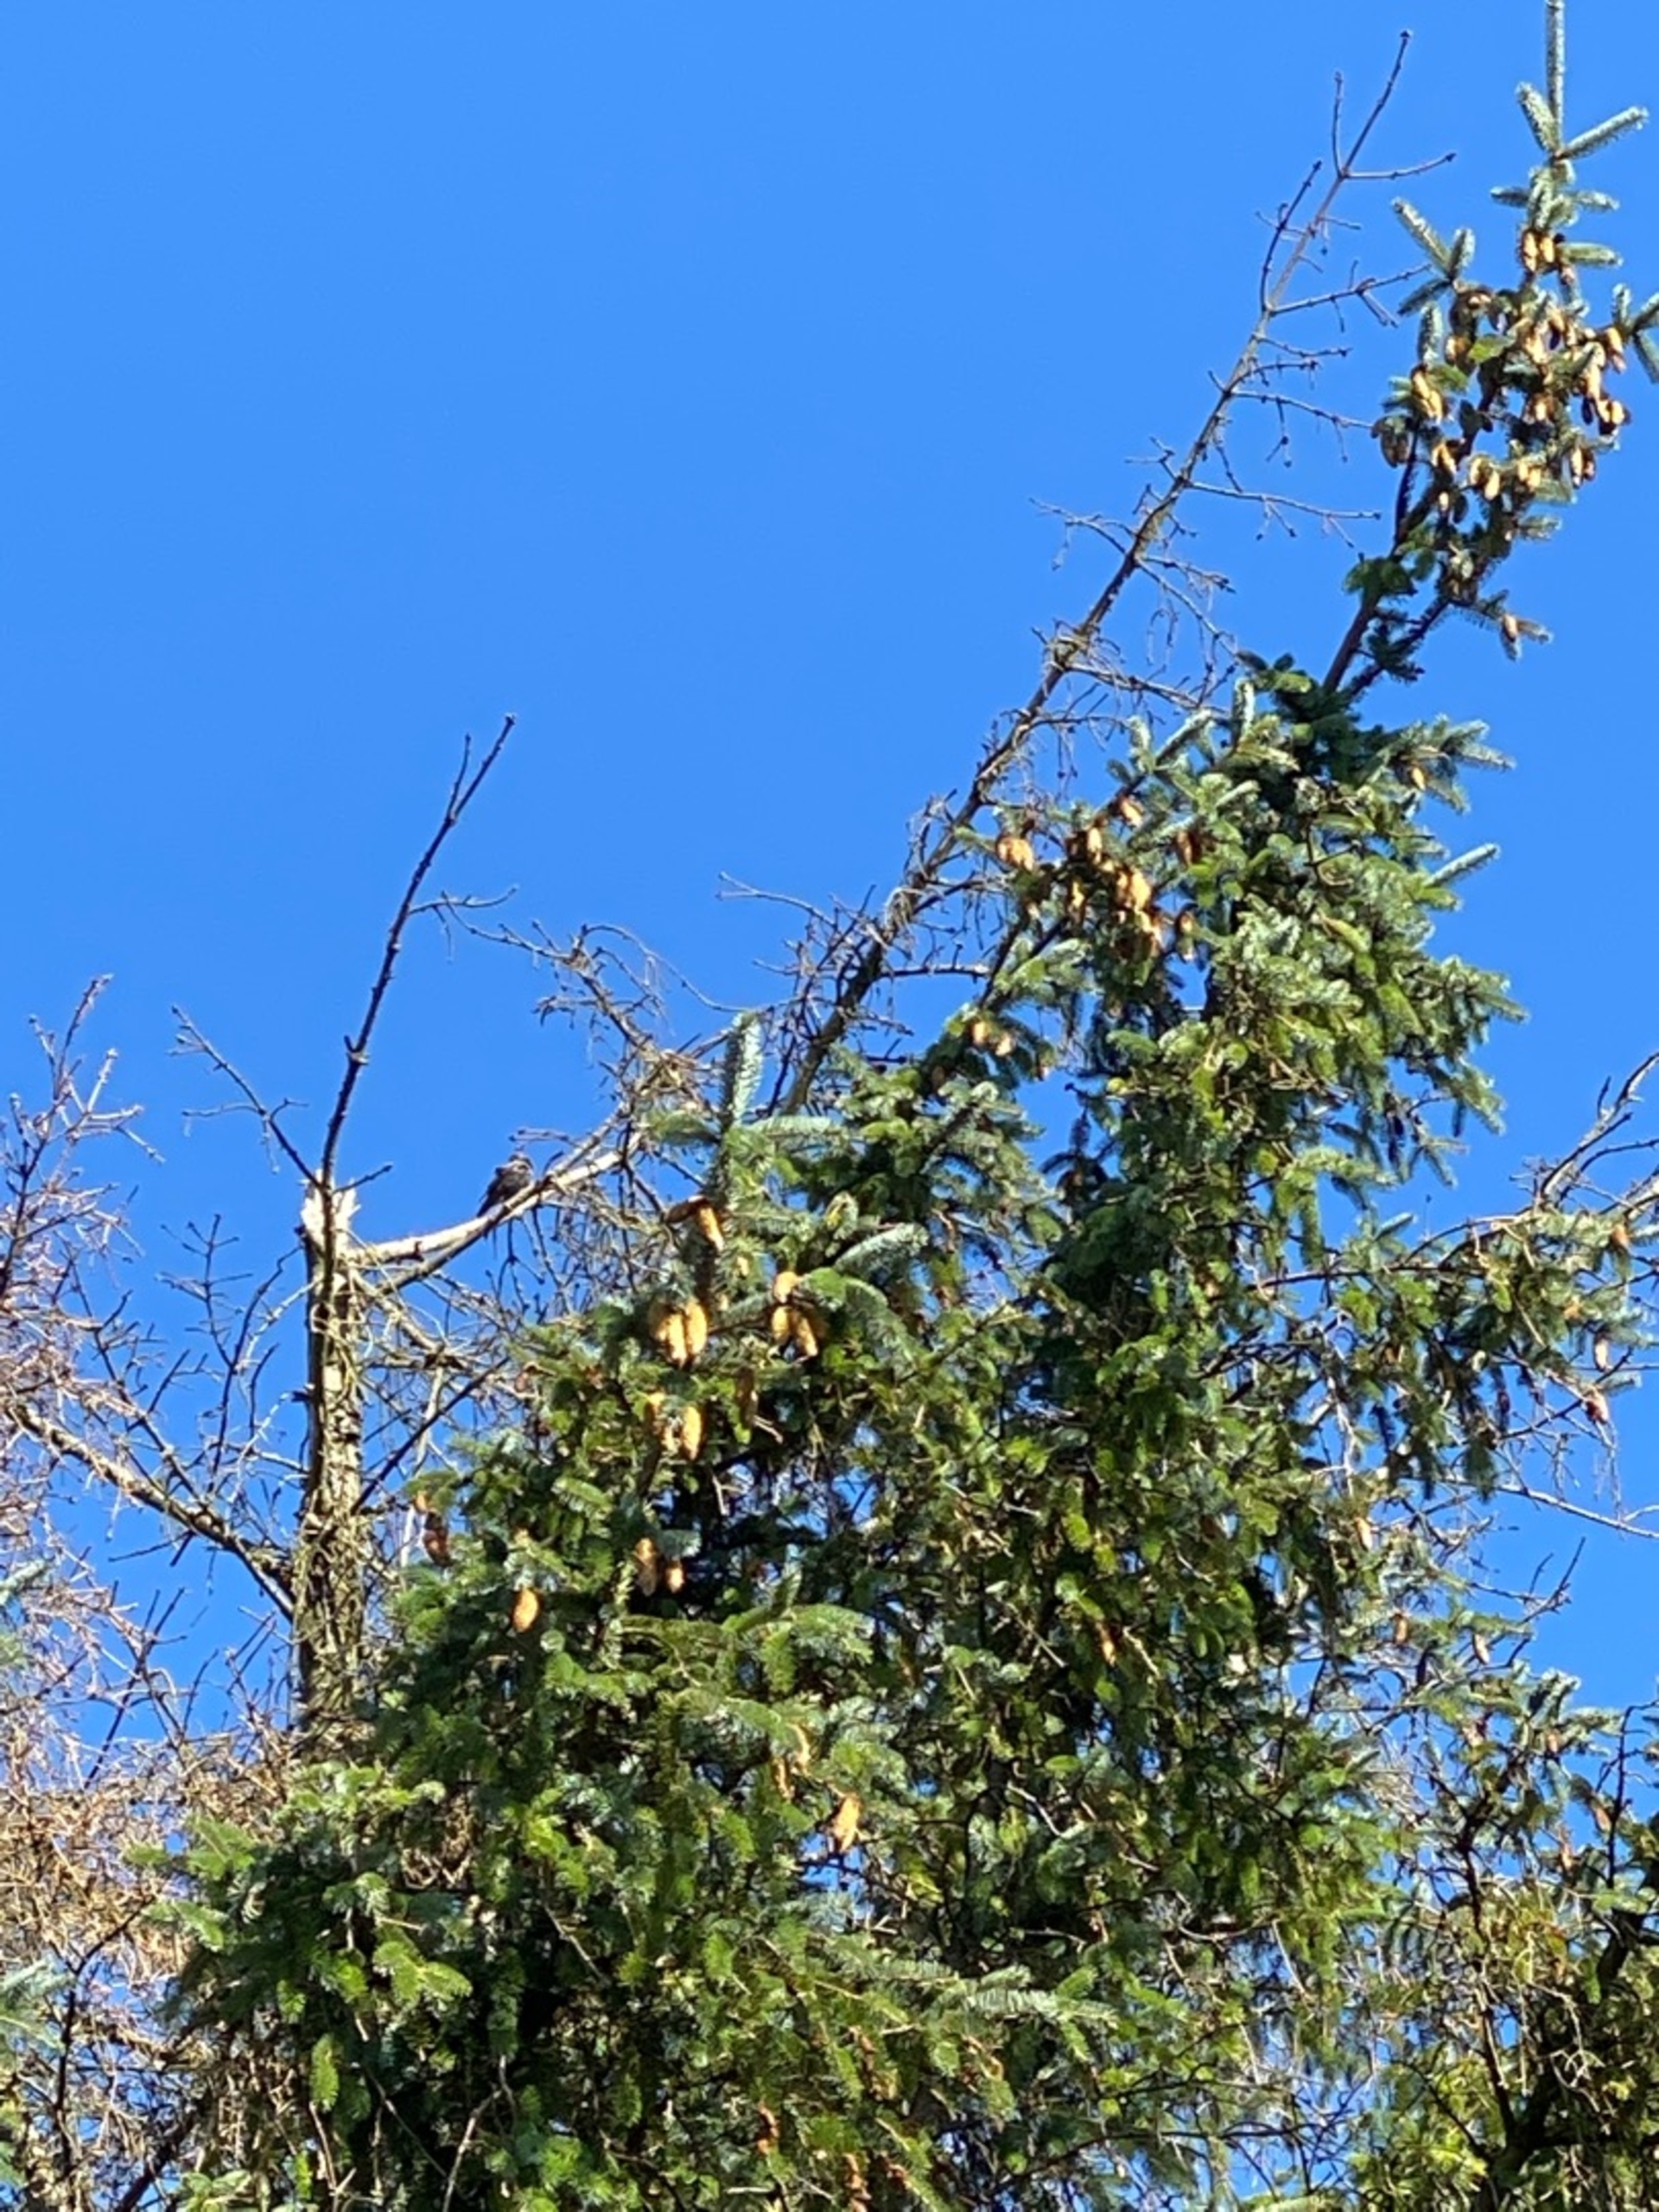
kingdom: Animalia
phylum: Chordata
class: Aves
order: Passeriformes
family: Sturnidae
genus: Sturnus
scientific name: Sturnus vulgaris
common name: Stær
